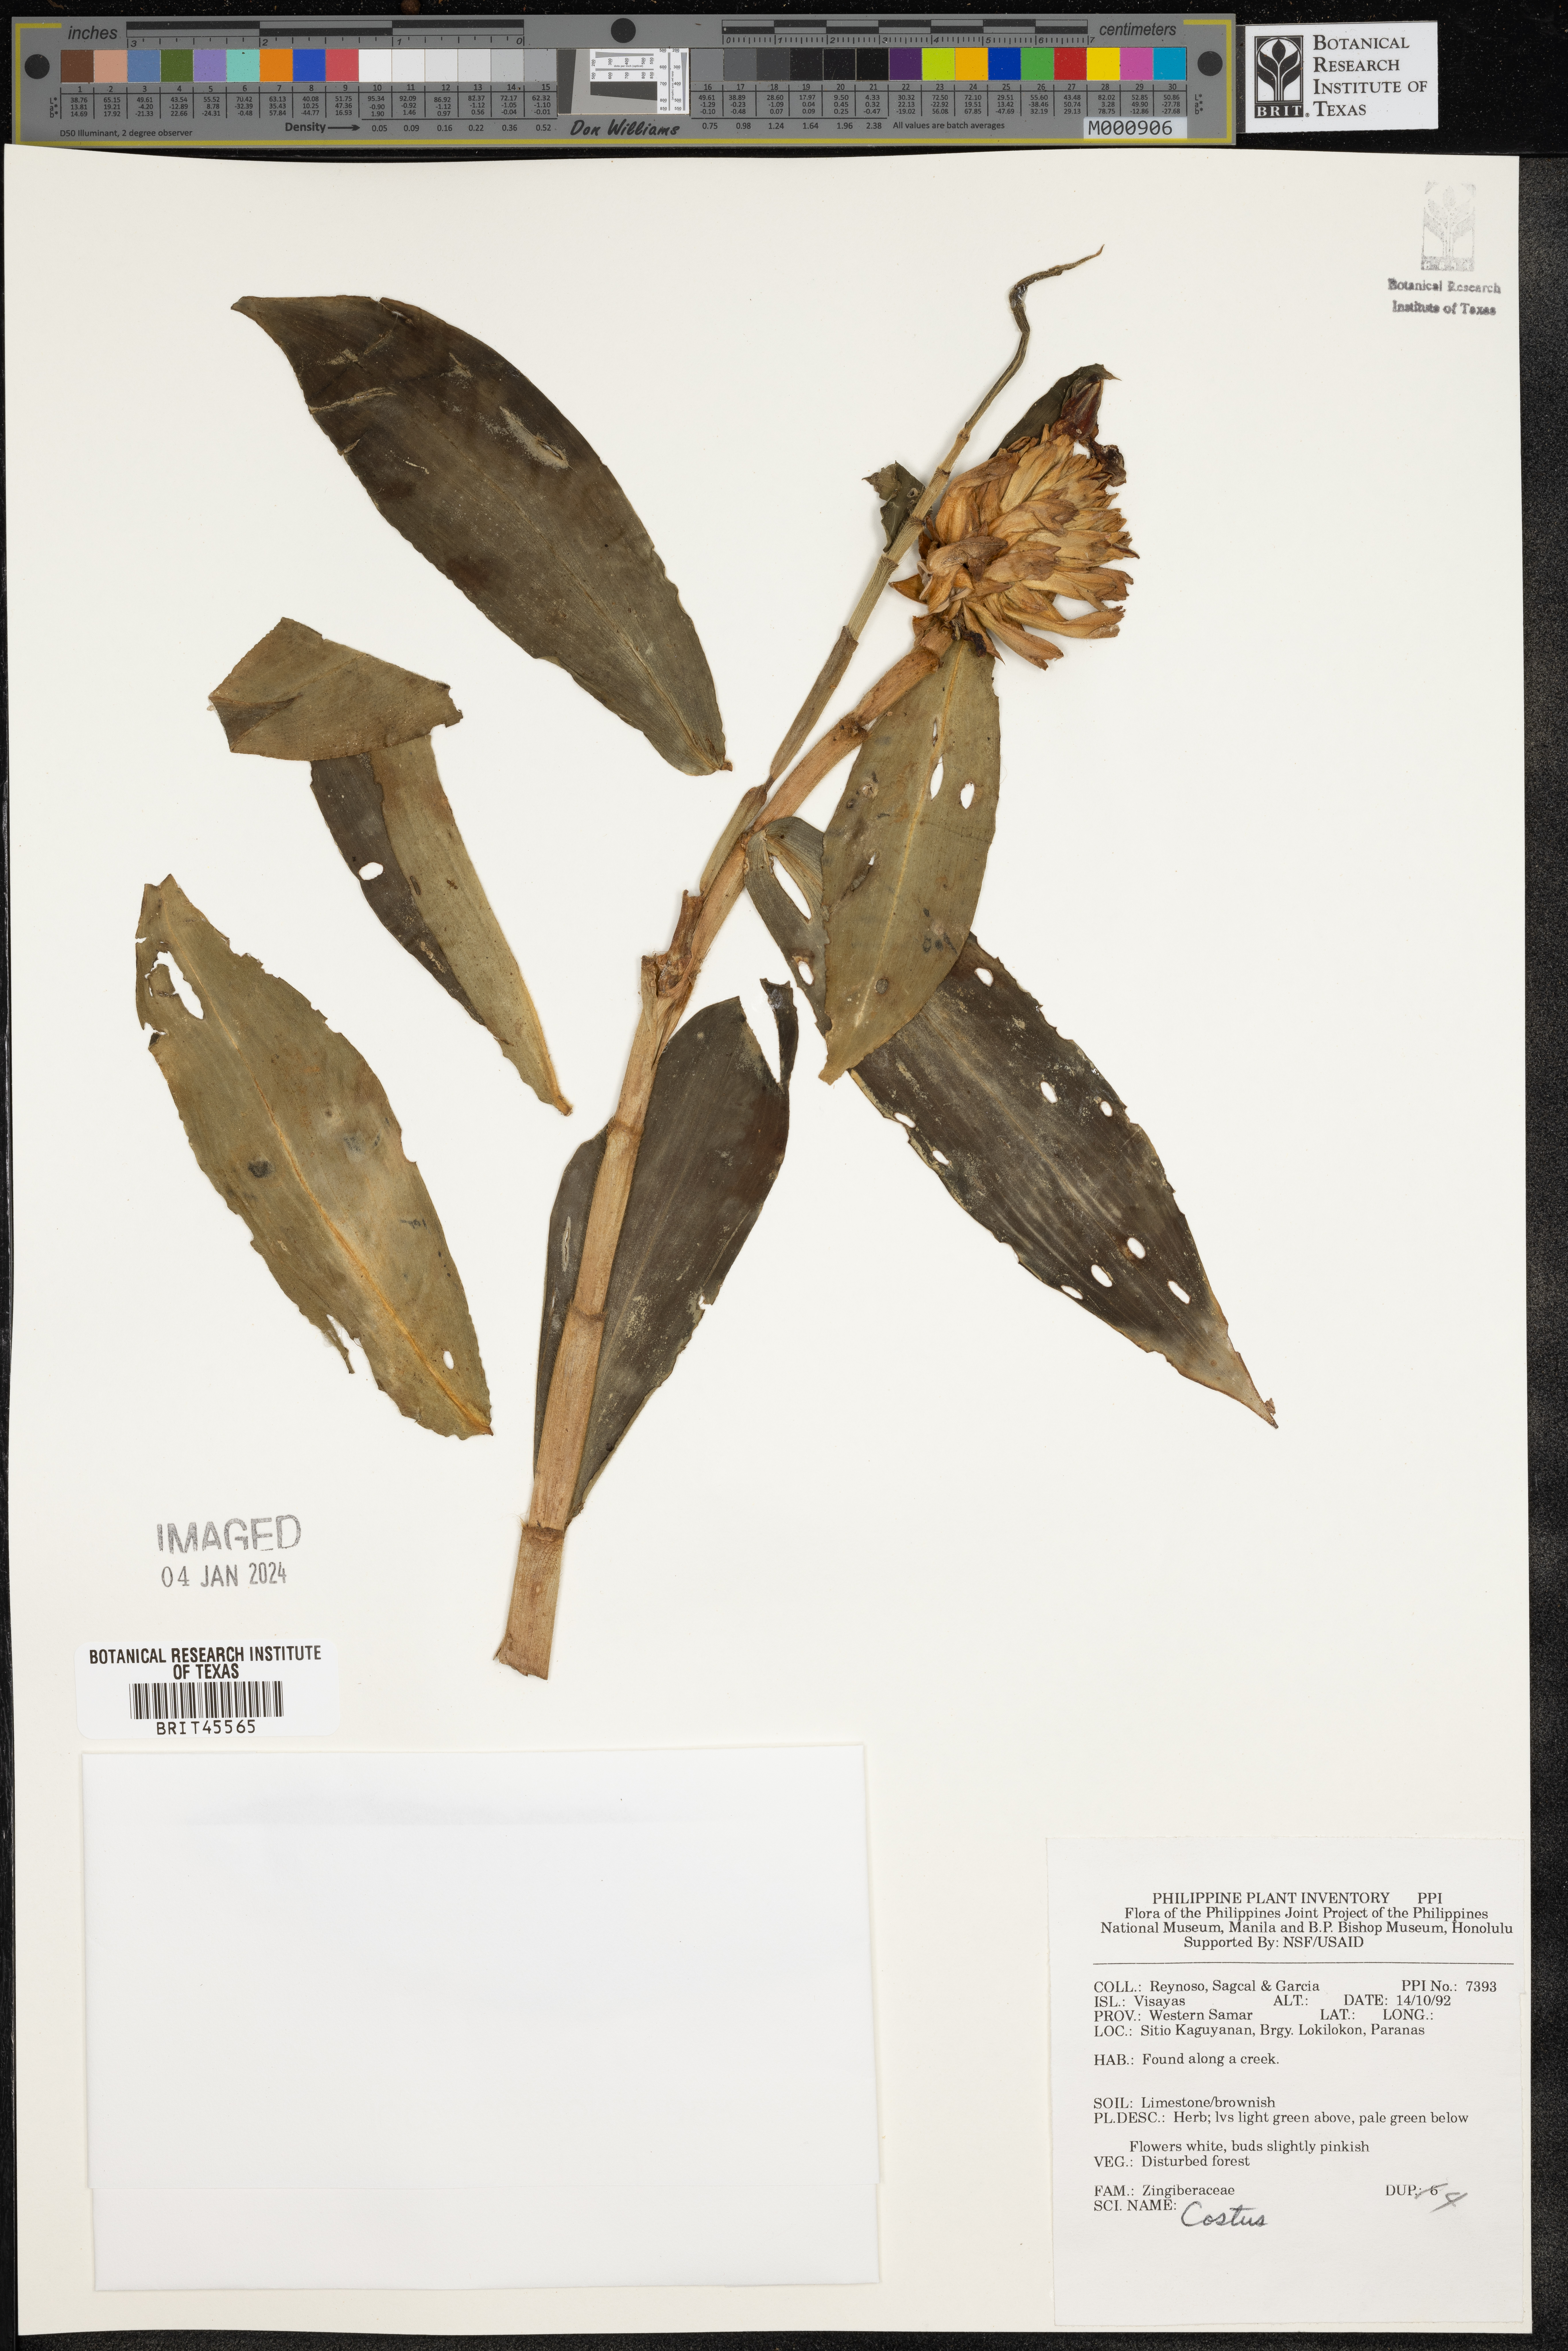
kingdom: Plantae
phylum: Tracheophyta
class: Liliopsida
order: Zingiberales
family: Costaceae
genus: Costus
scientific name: Costus
